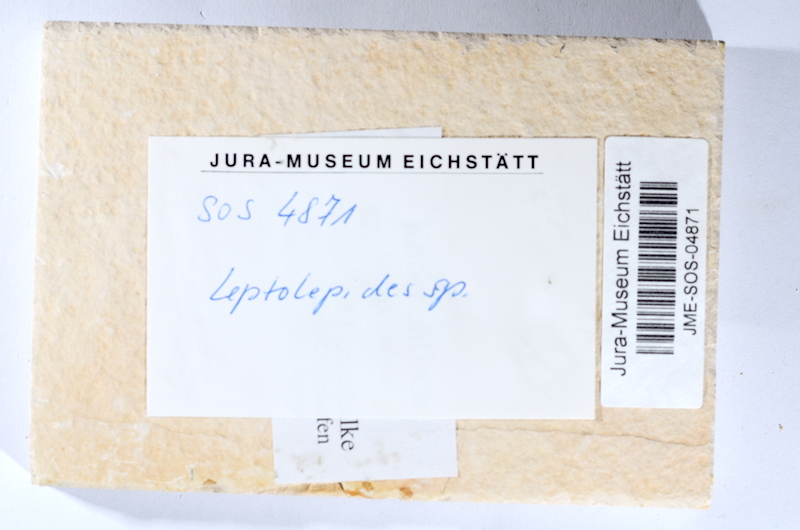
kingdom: Animalia
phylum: Chordata
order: Salmoniformes
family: Orthogonikleithridae
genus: Leptolepides
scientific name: Leptolepides sprattiformis
